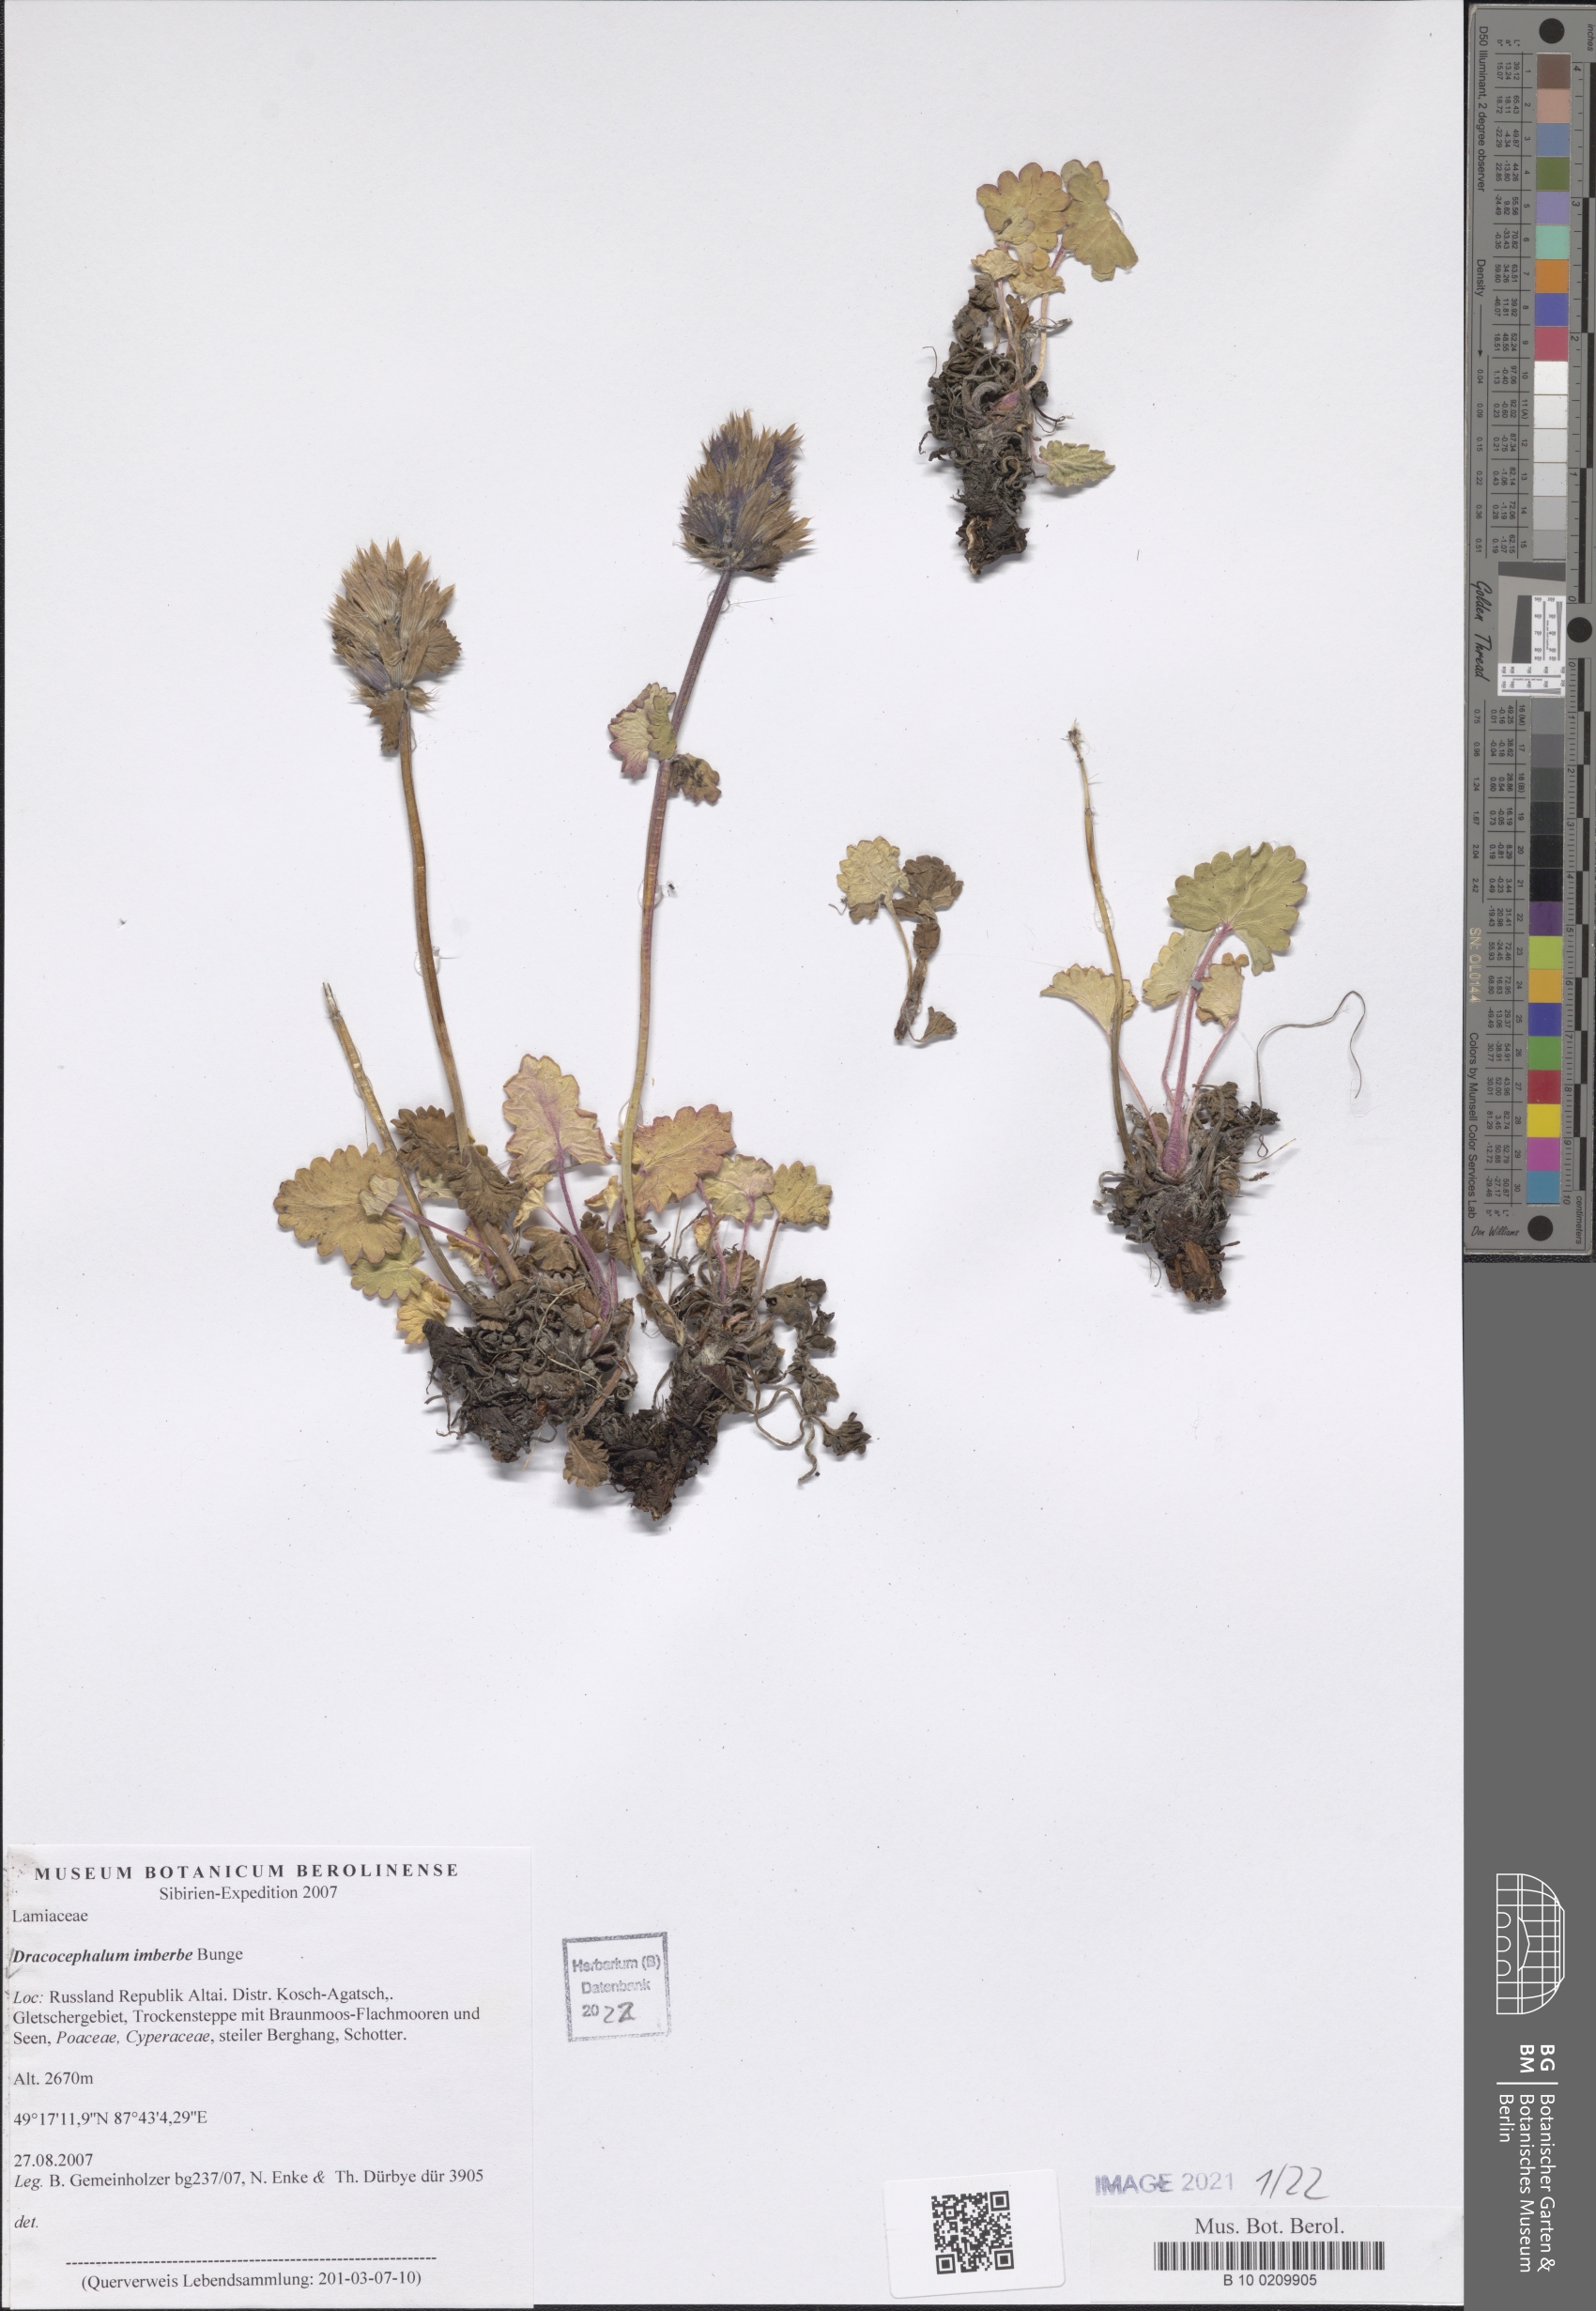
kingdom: Plantae
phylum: Tracheophyta
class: Magnoliopsida
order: Lamiales
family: Lamiaceae
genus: Dracocephalum
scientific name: Dracocephalum imberbe
